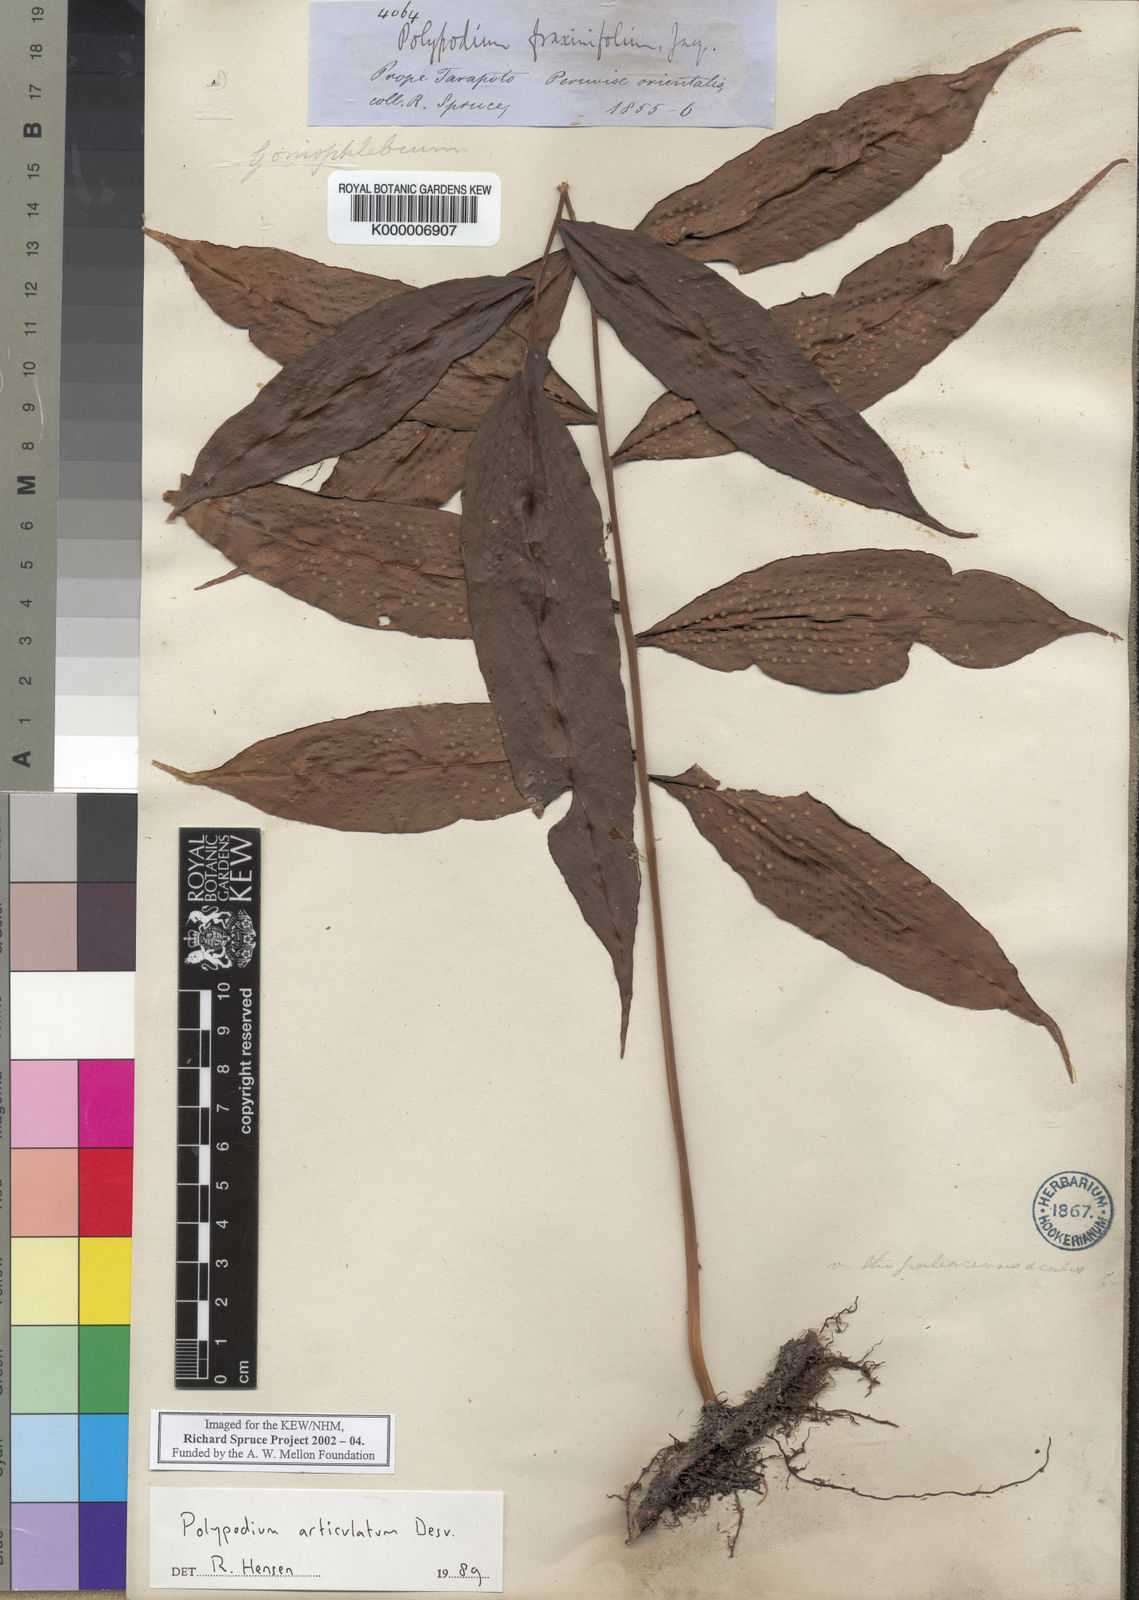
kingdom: Plantae
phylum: Tracheophyta
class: Polypodiopsida
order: Polypodiales
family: Polypodiaceae
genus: Serpocaulon
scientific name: Serpocaulon articulatum
